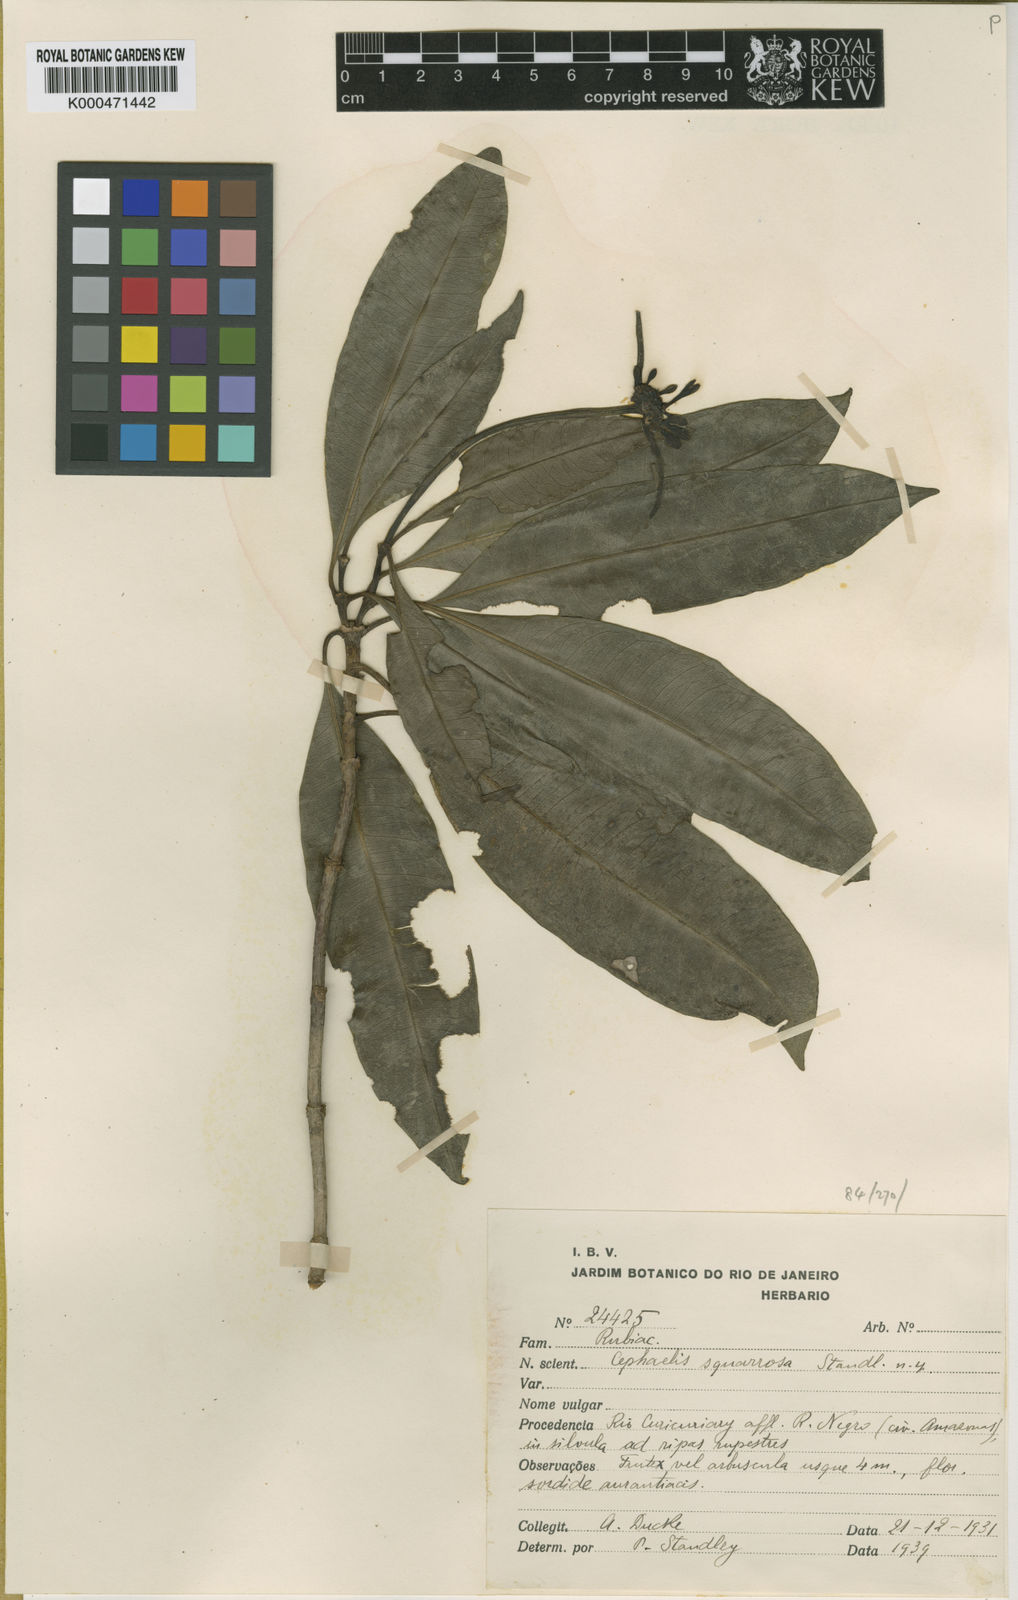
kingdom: Plantae
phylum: Tracheophyta
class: Magnoliopsida
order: Gentianales
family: Rubiaceae
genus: Palicourea
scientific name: Palicourea officinalis
